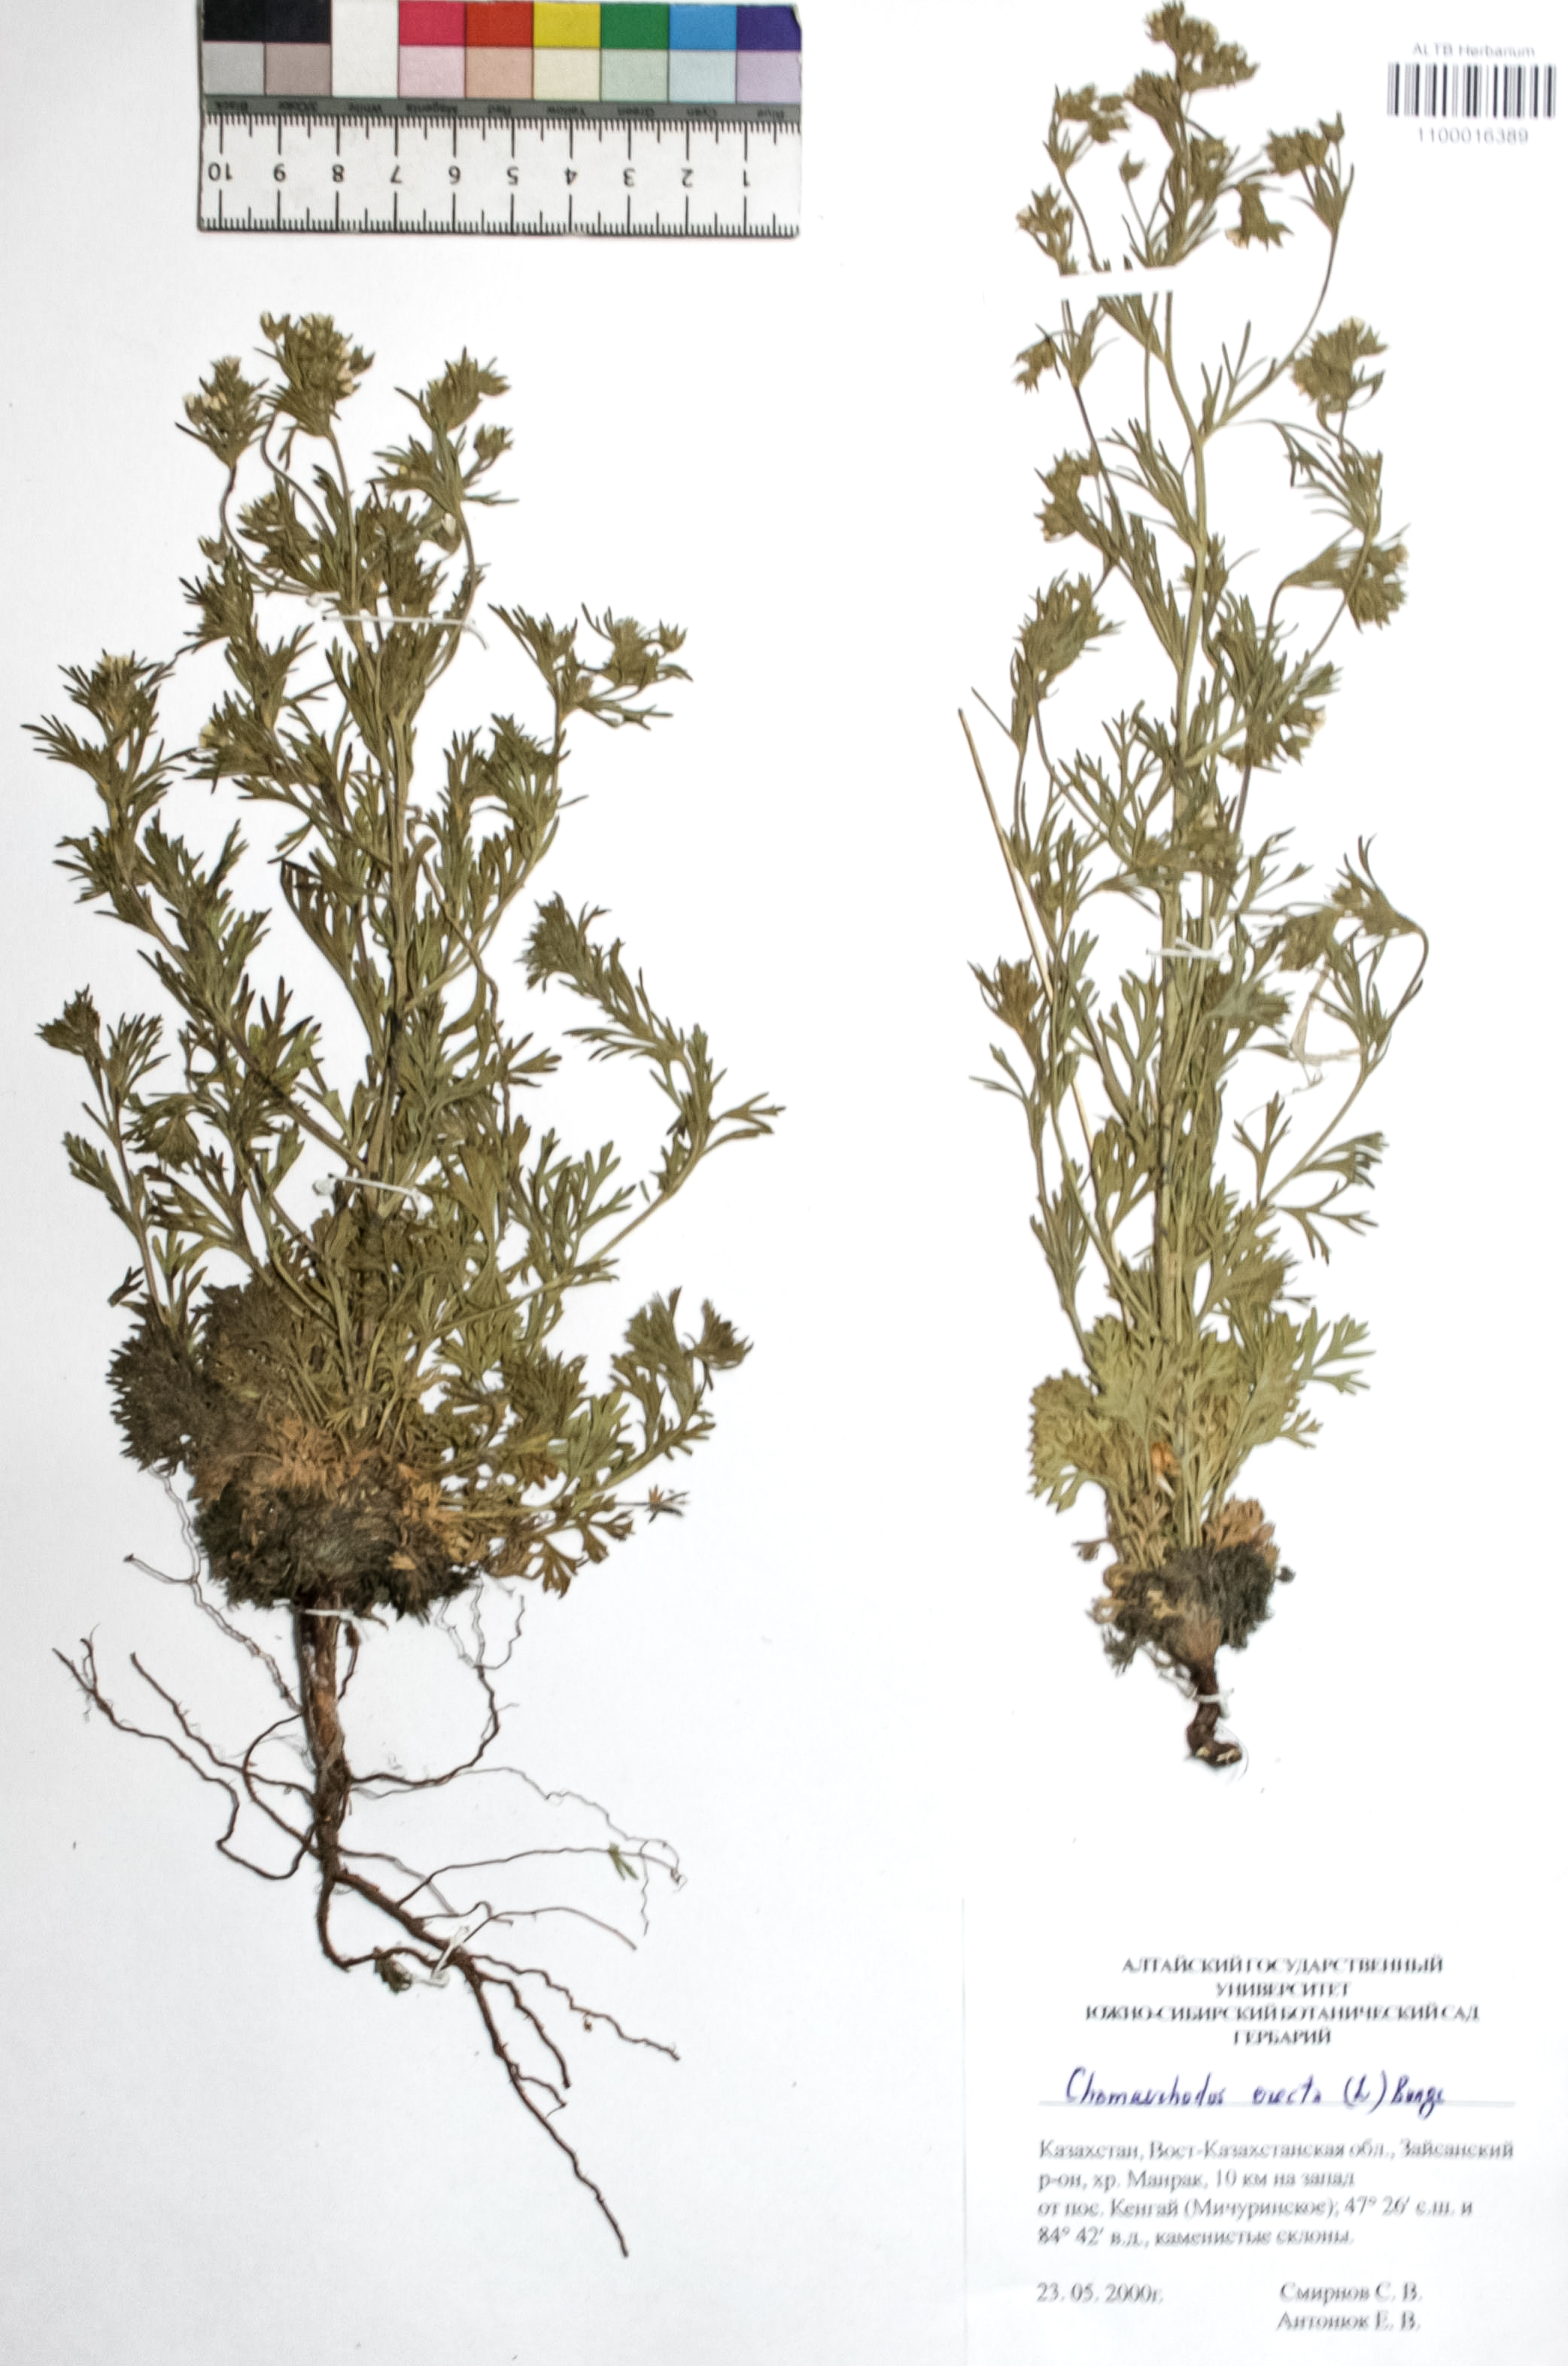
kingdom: Plantae
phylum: Tracheophyta
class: Magnoliopsida
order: Rosales
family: Rosaceae
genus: Chamaerhodos
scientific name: Chamaerhodos erecta
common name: American chamaerhodos
